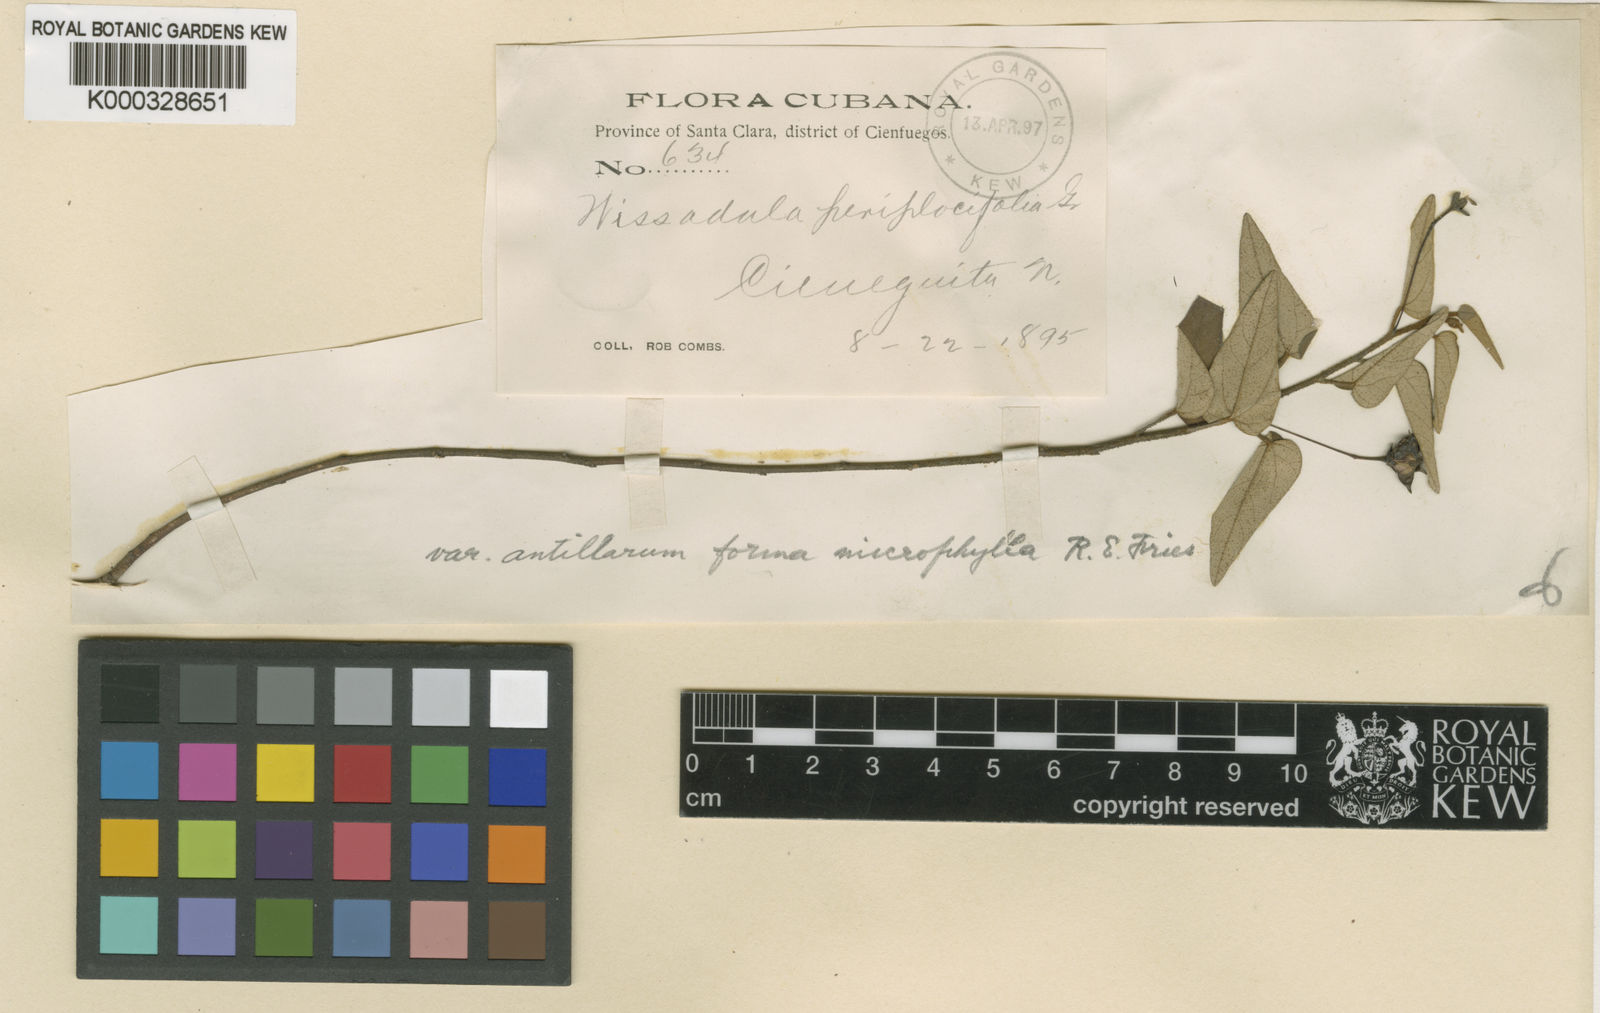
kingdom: Plantae
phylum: Tracheophyta
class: Magnoliopsida
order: Malvales
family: Malvaceae
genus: Wissadula
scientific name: Wissadula
